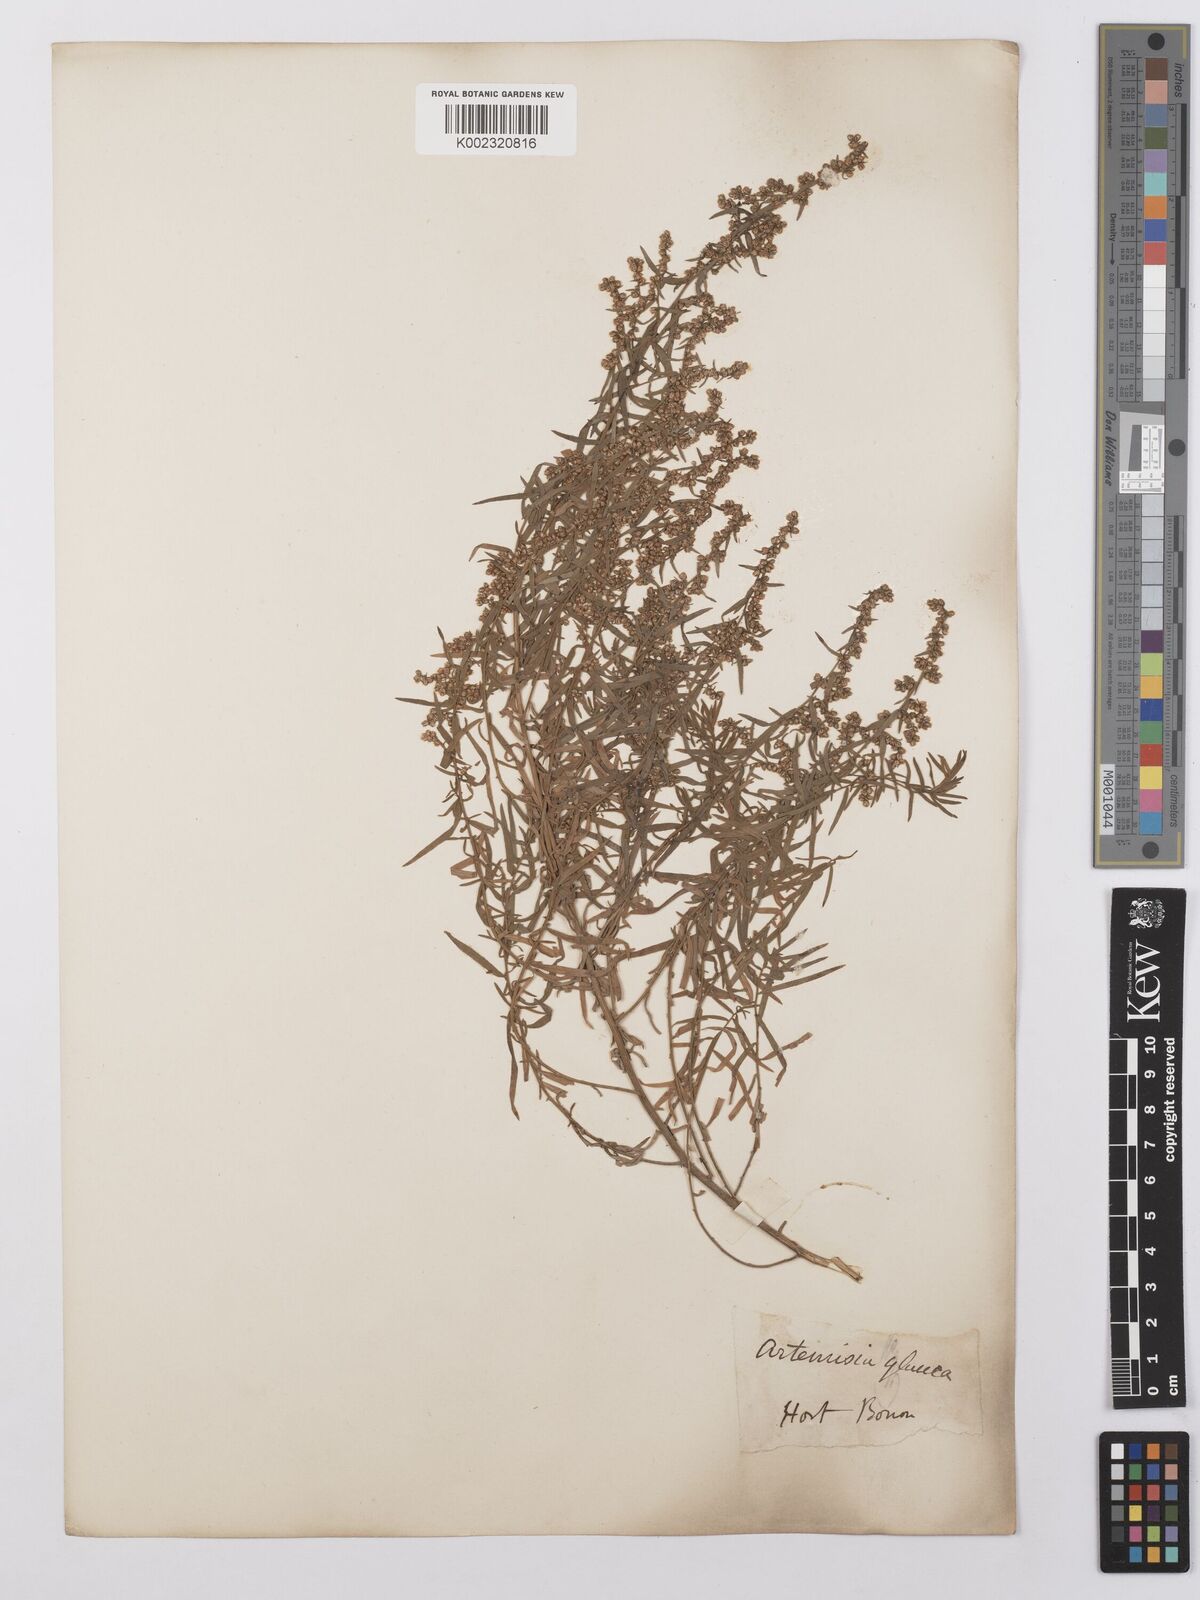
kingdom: Plantae
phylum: Tracheophyta
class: Magnoliopsida
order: Asterales
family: Asteraceae
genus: Artemisia
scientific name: Artemisia glauca
